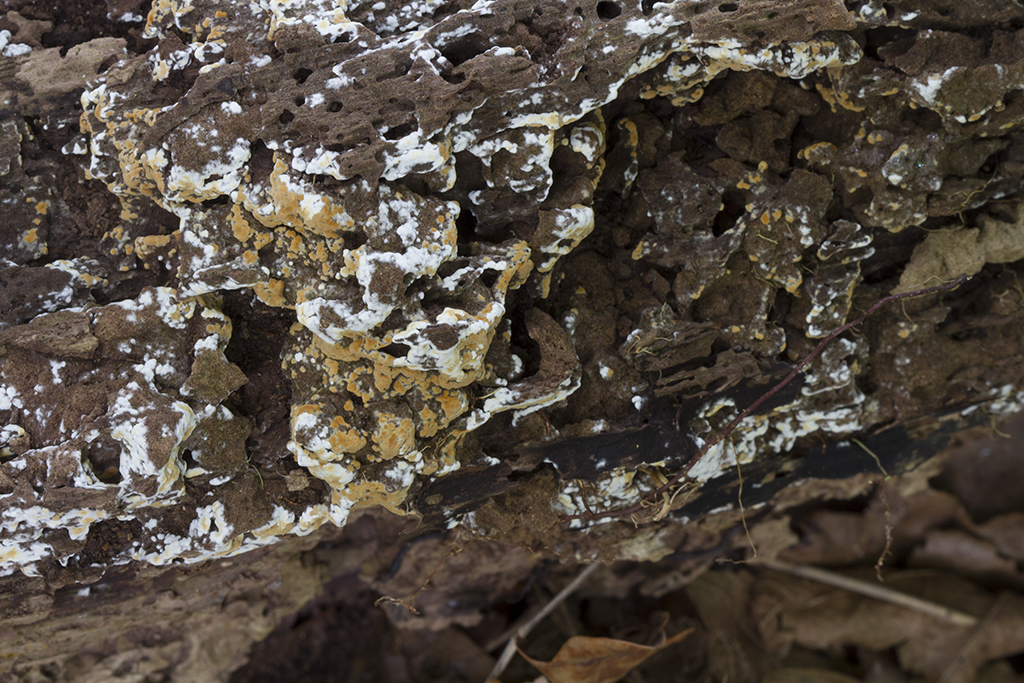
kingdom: Fungi
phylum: Basidiomycota
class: Agaricomycetes
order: Cantharellales
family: Botryobasidiaceae
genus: Botryobasidium
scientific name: Botryobasidium aureum
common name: gylden spindhinde
